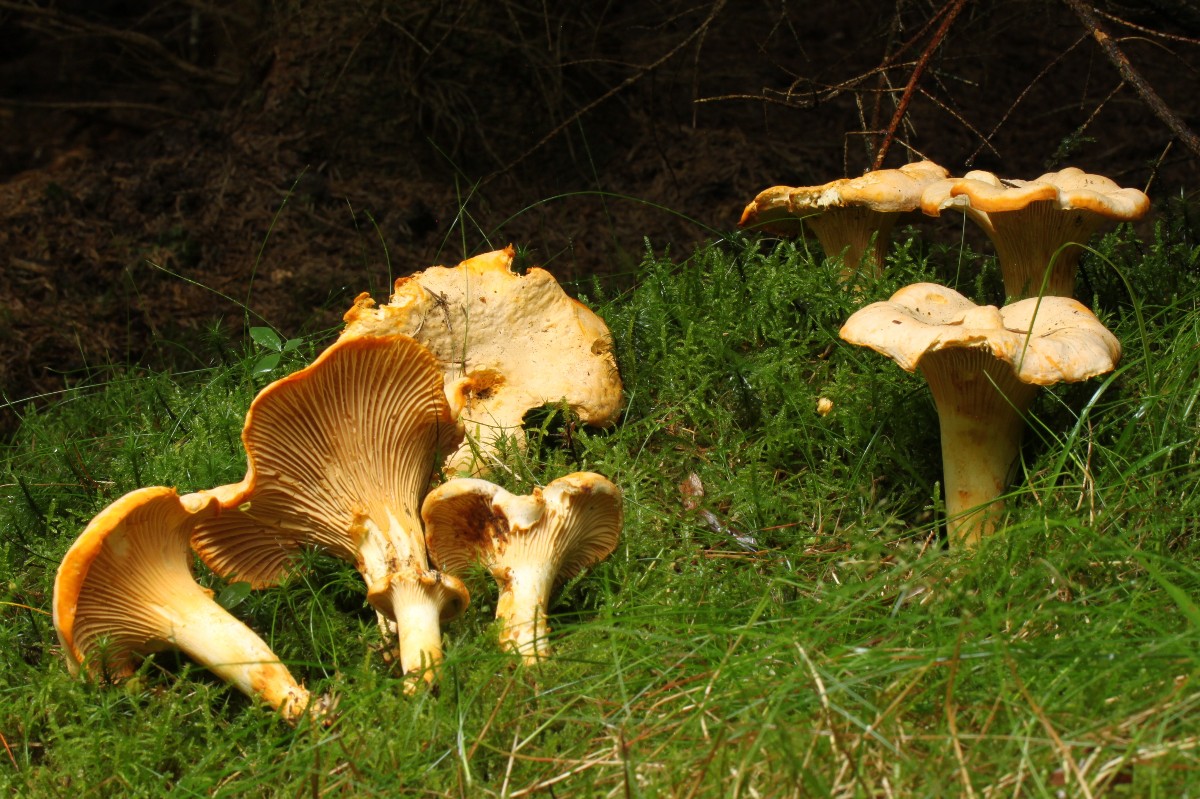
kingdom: Fungi
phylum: Basidiomycota
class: Agaricomycetes
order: Cantharellales
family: Hydnaceae
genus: Cantharellus
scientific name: Cantharellus cibarius
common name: almindelig kantarel
